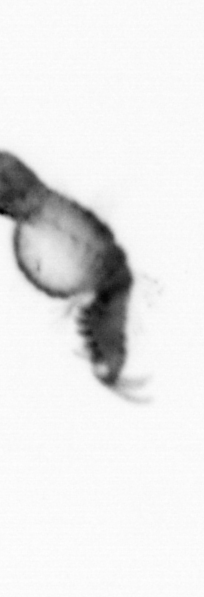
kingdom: Animalia
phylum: Annelida
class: Polychaeta
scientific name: Polychaeta
